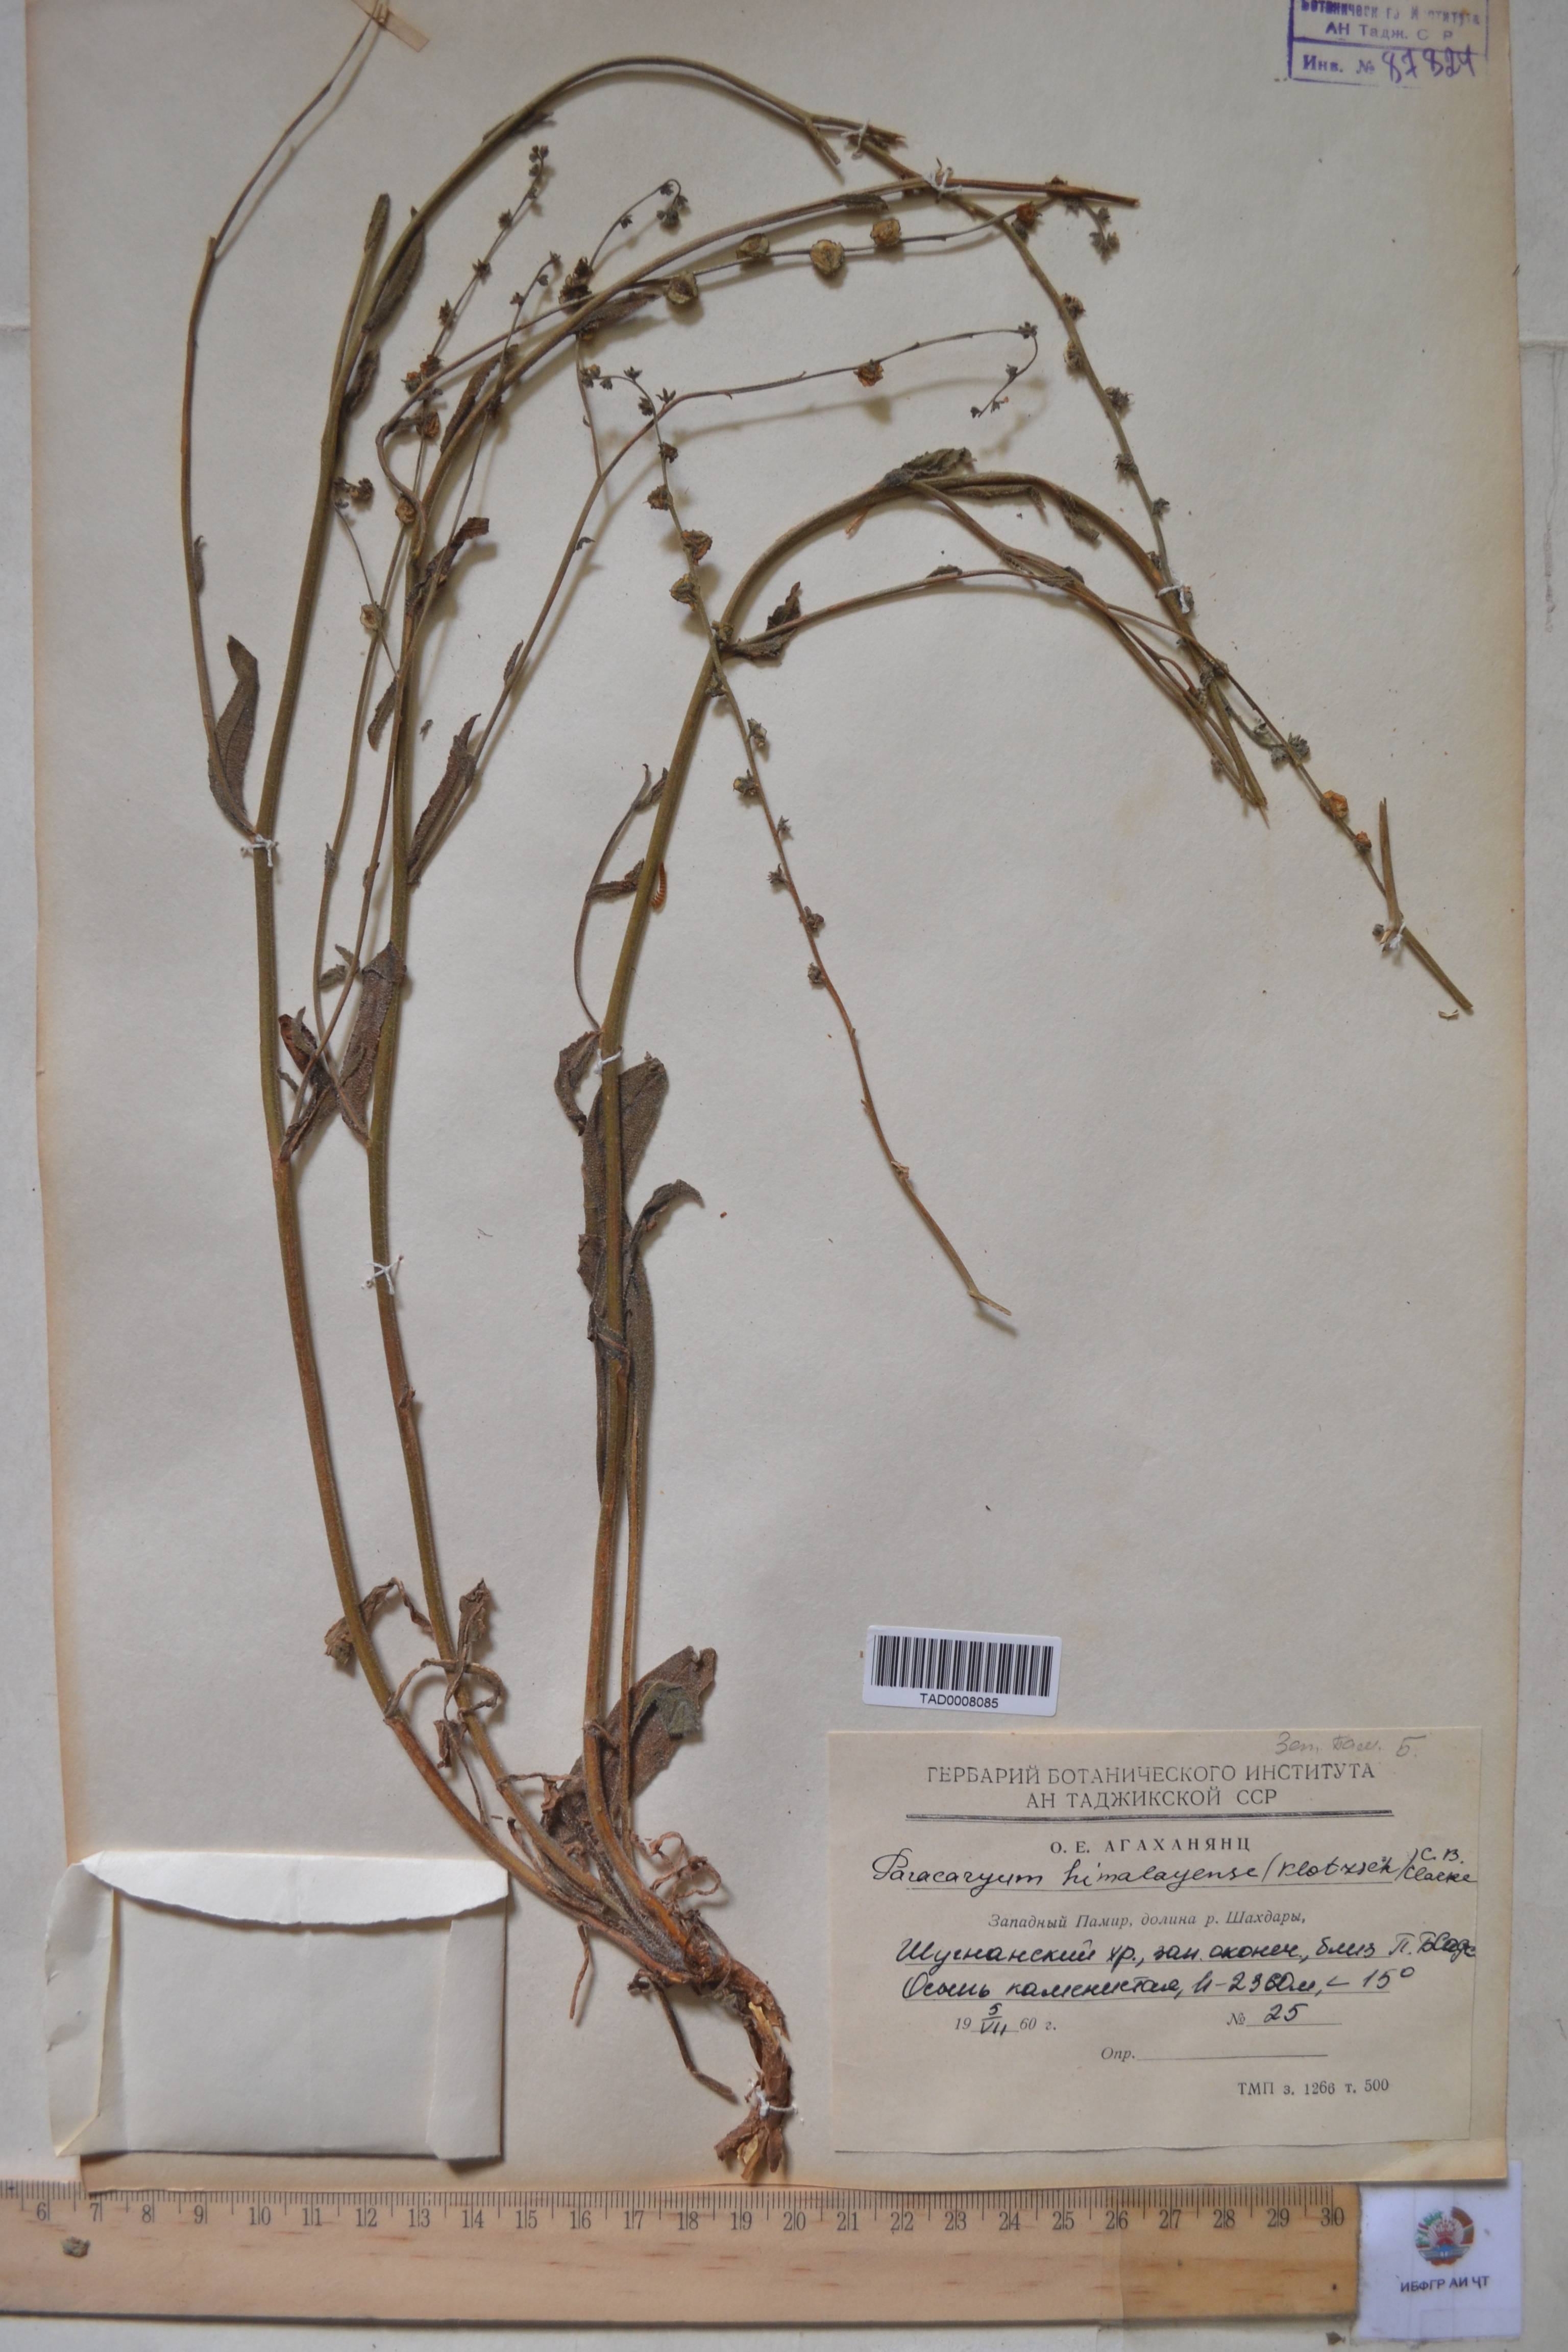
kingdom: Plantae
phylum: Tracheophyta
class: Magnoliopsida
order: Boraginales
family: Boraginaceae
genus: Paracaryum
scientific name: Paracaryum himalayense
